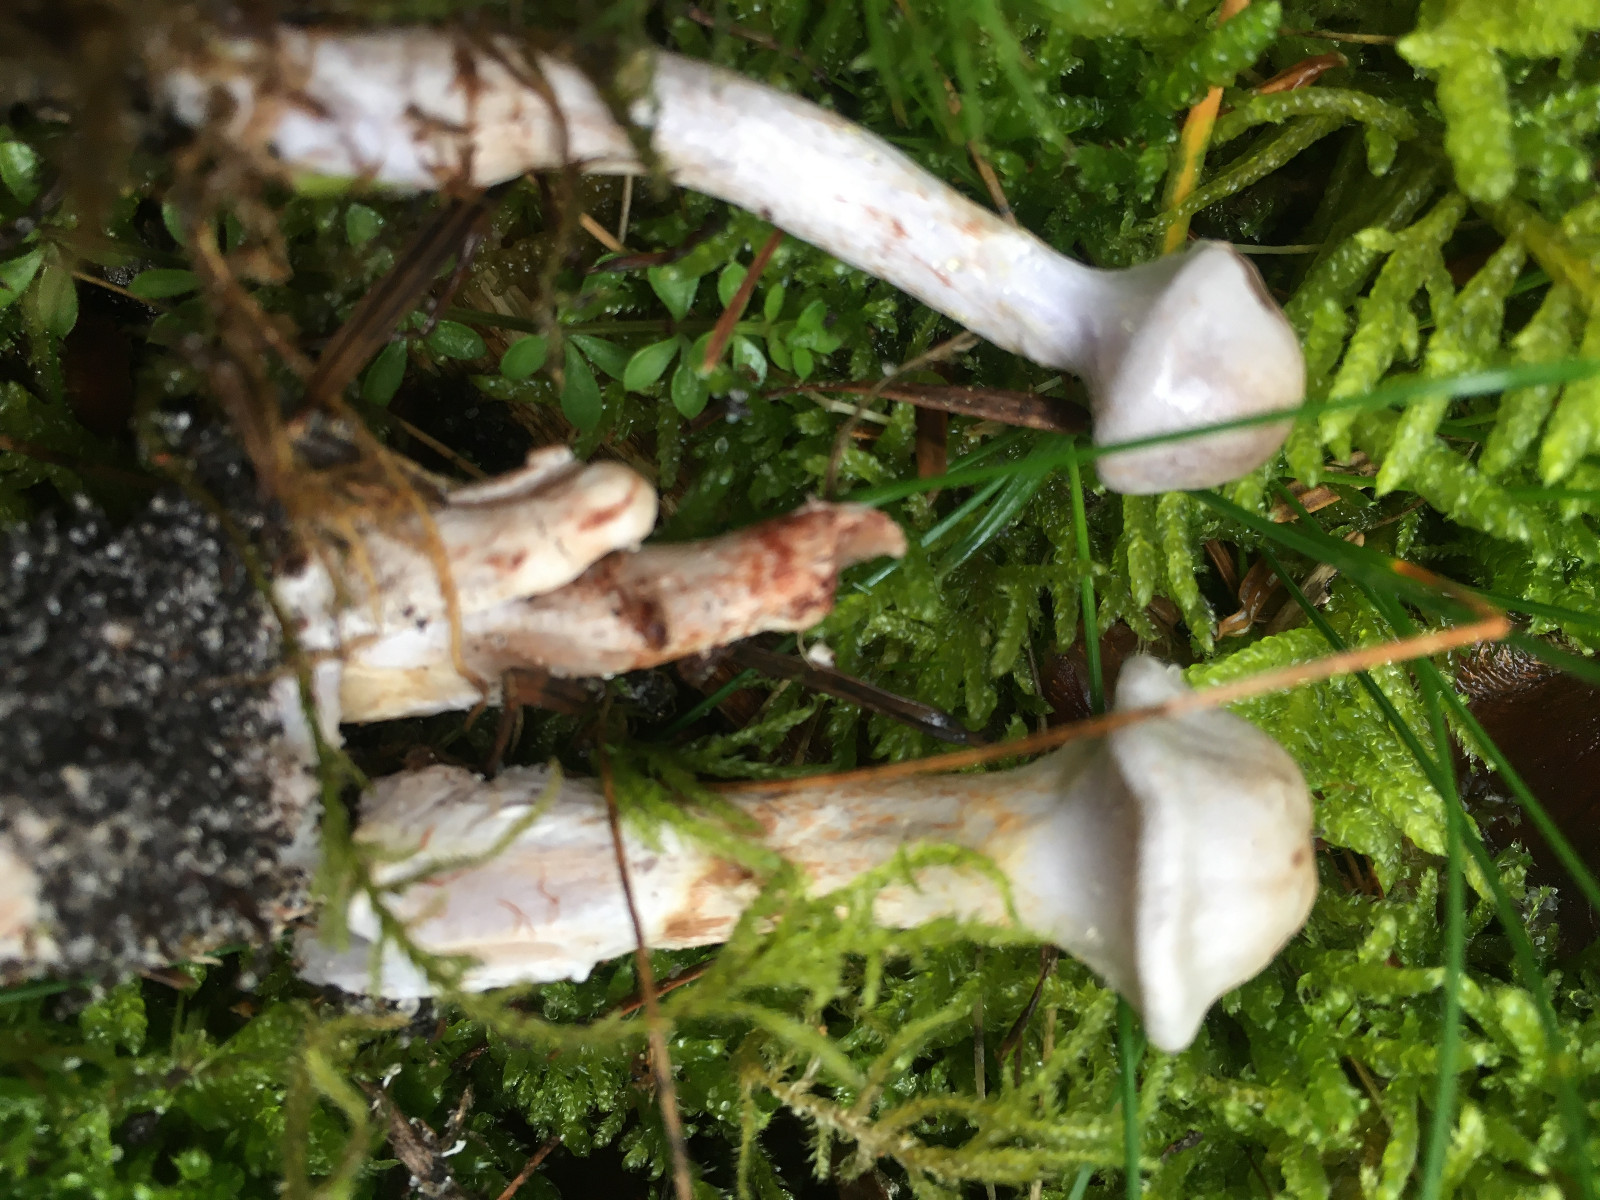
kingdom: Fungi
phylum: Basidiomycota
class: Agaricomycetes
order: Agaricales
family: Cortinariaceae
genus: Cortinarius
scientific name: Cortinarius spilomeus
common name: rødfnugget slørhat
